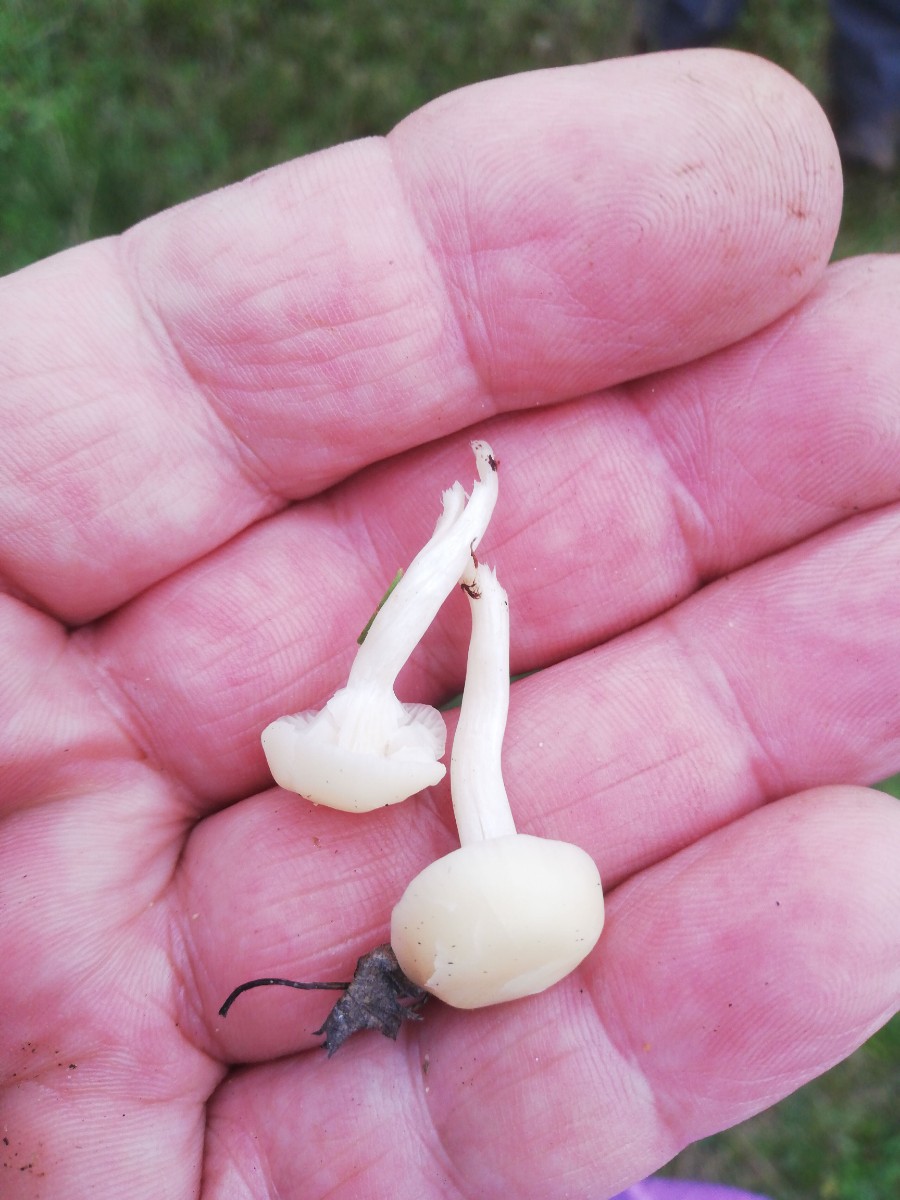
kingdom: Fungi
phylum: Basidiomycota
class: Agaricomycetes
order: Agaricales
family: Hygrophoraceae
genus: Cuphophyllus
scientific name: Cuphophyllus virgineus
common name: snehvid vokshat
